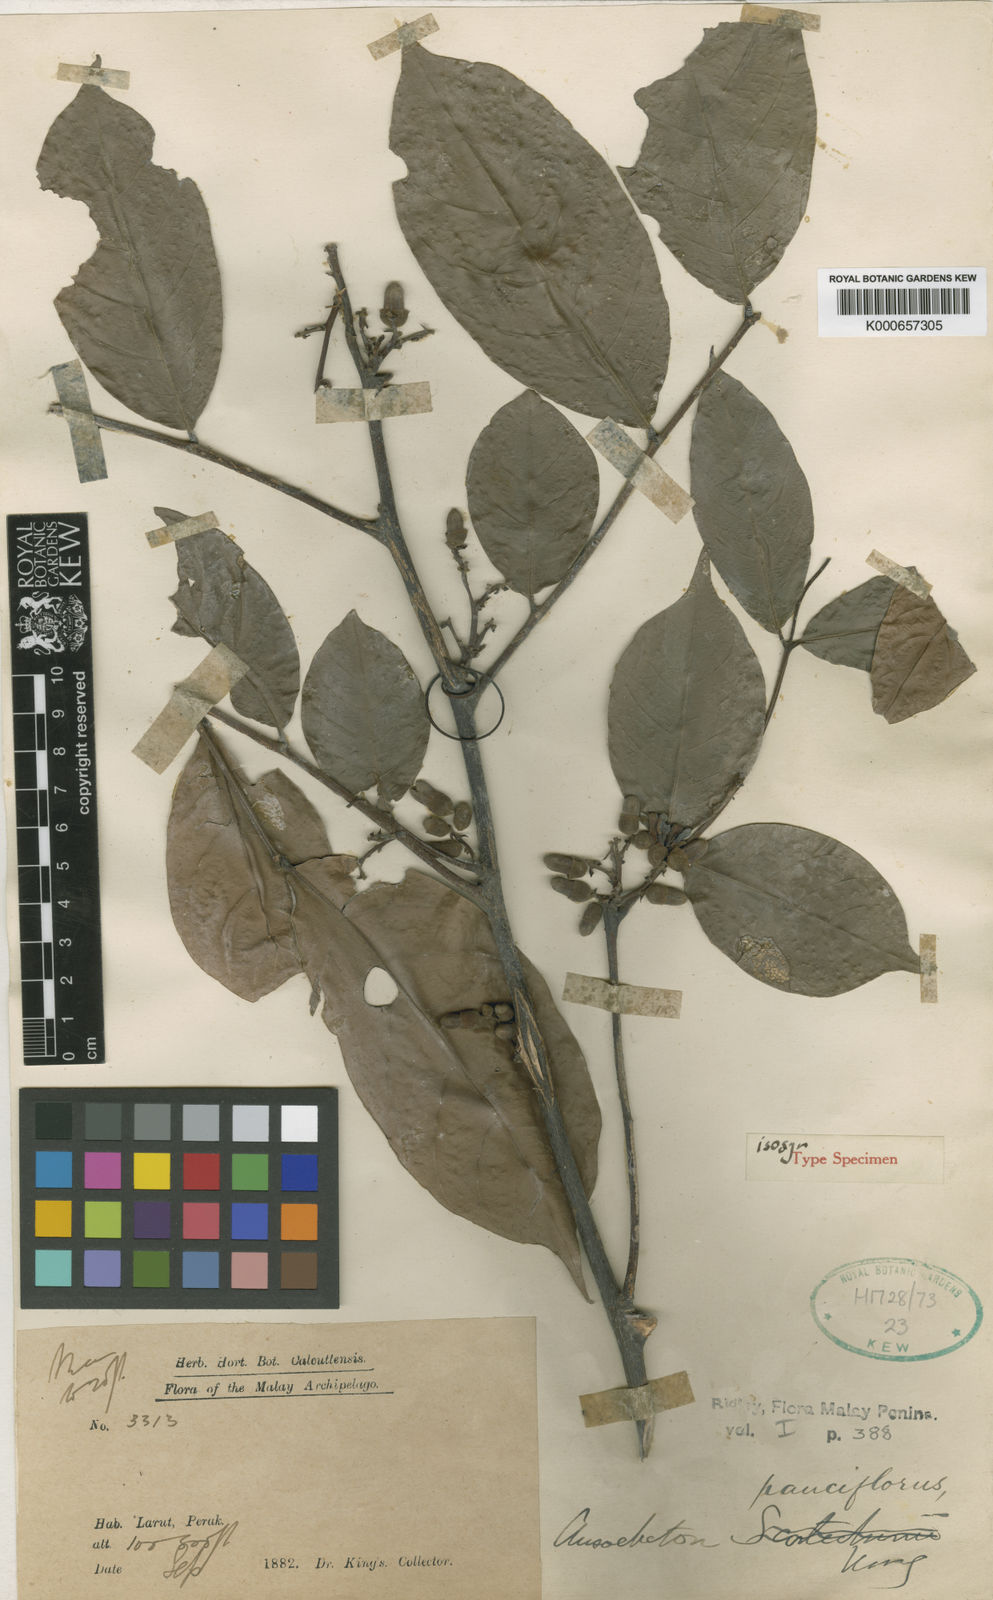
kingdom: Plantae
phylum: Tracheophyta
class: Magnoliopsida
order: Sapindales
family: Meliaceae
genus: Chisocheton
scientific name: Chisocheton pauciflorus
